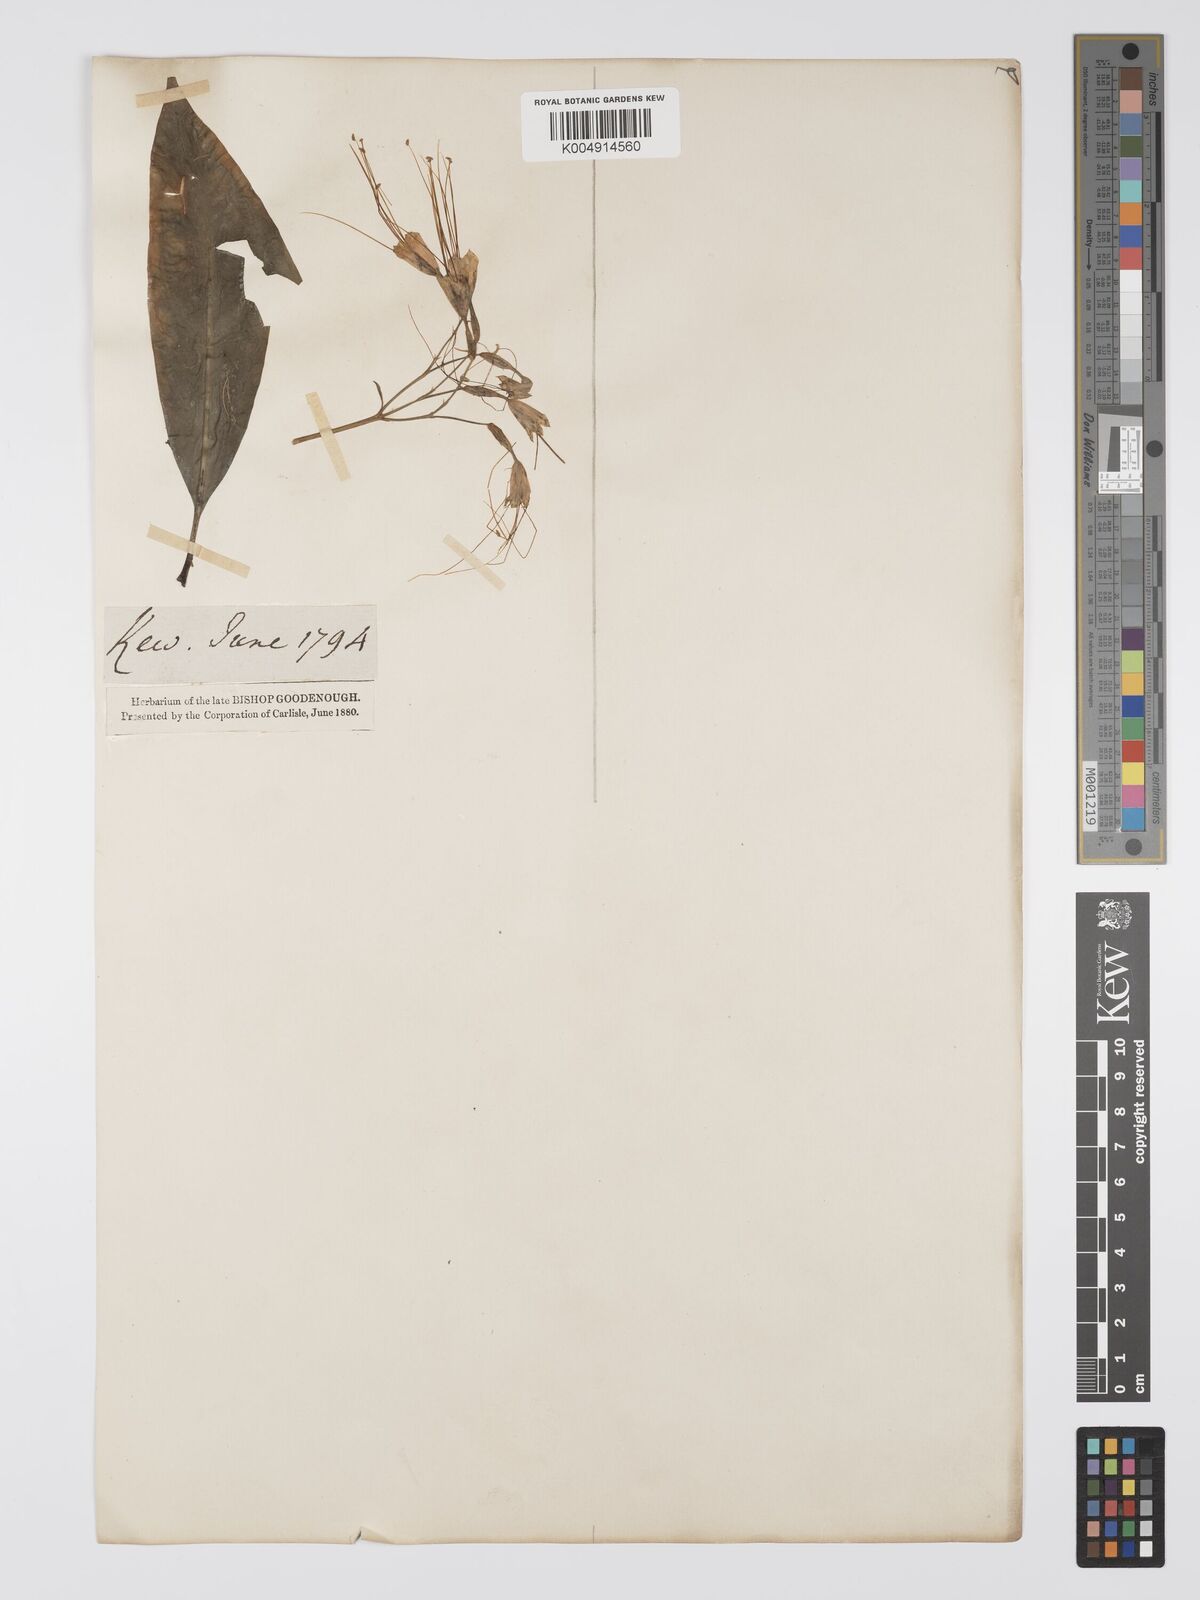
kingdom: Plantae
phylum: Tracheophyta
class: Magnoliopsida
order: Gentianales
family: Gentianaceae
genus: Lisianthus
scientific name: Lisianthus exsertus
